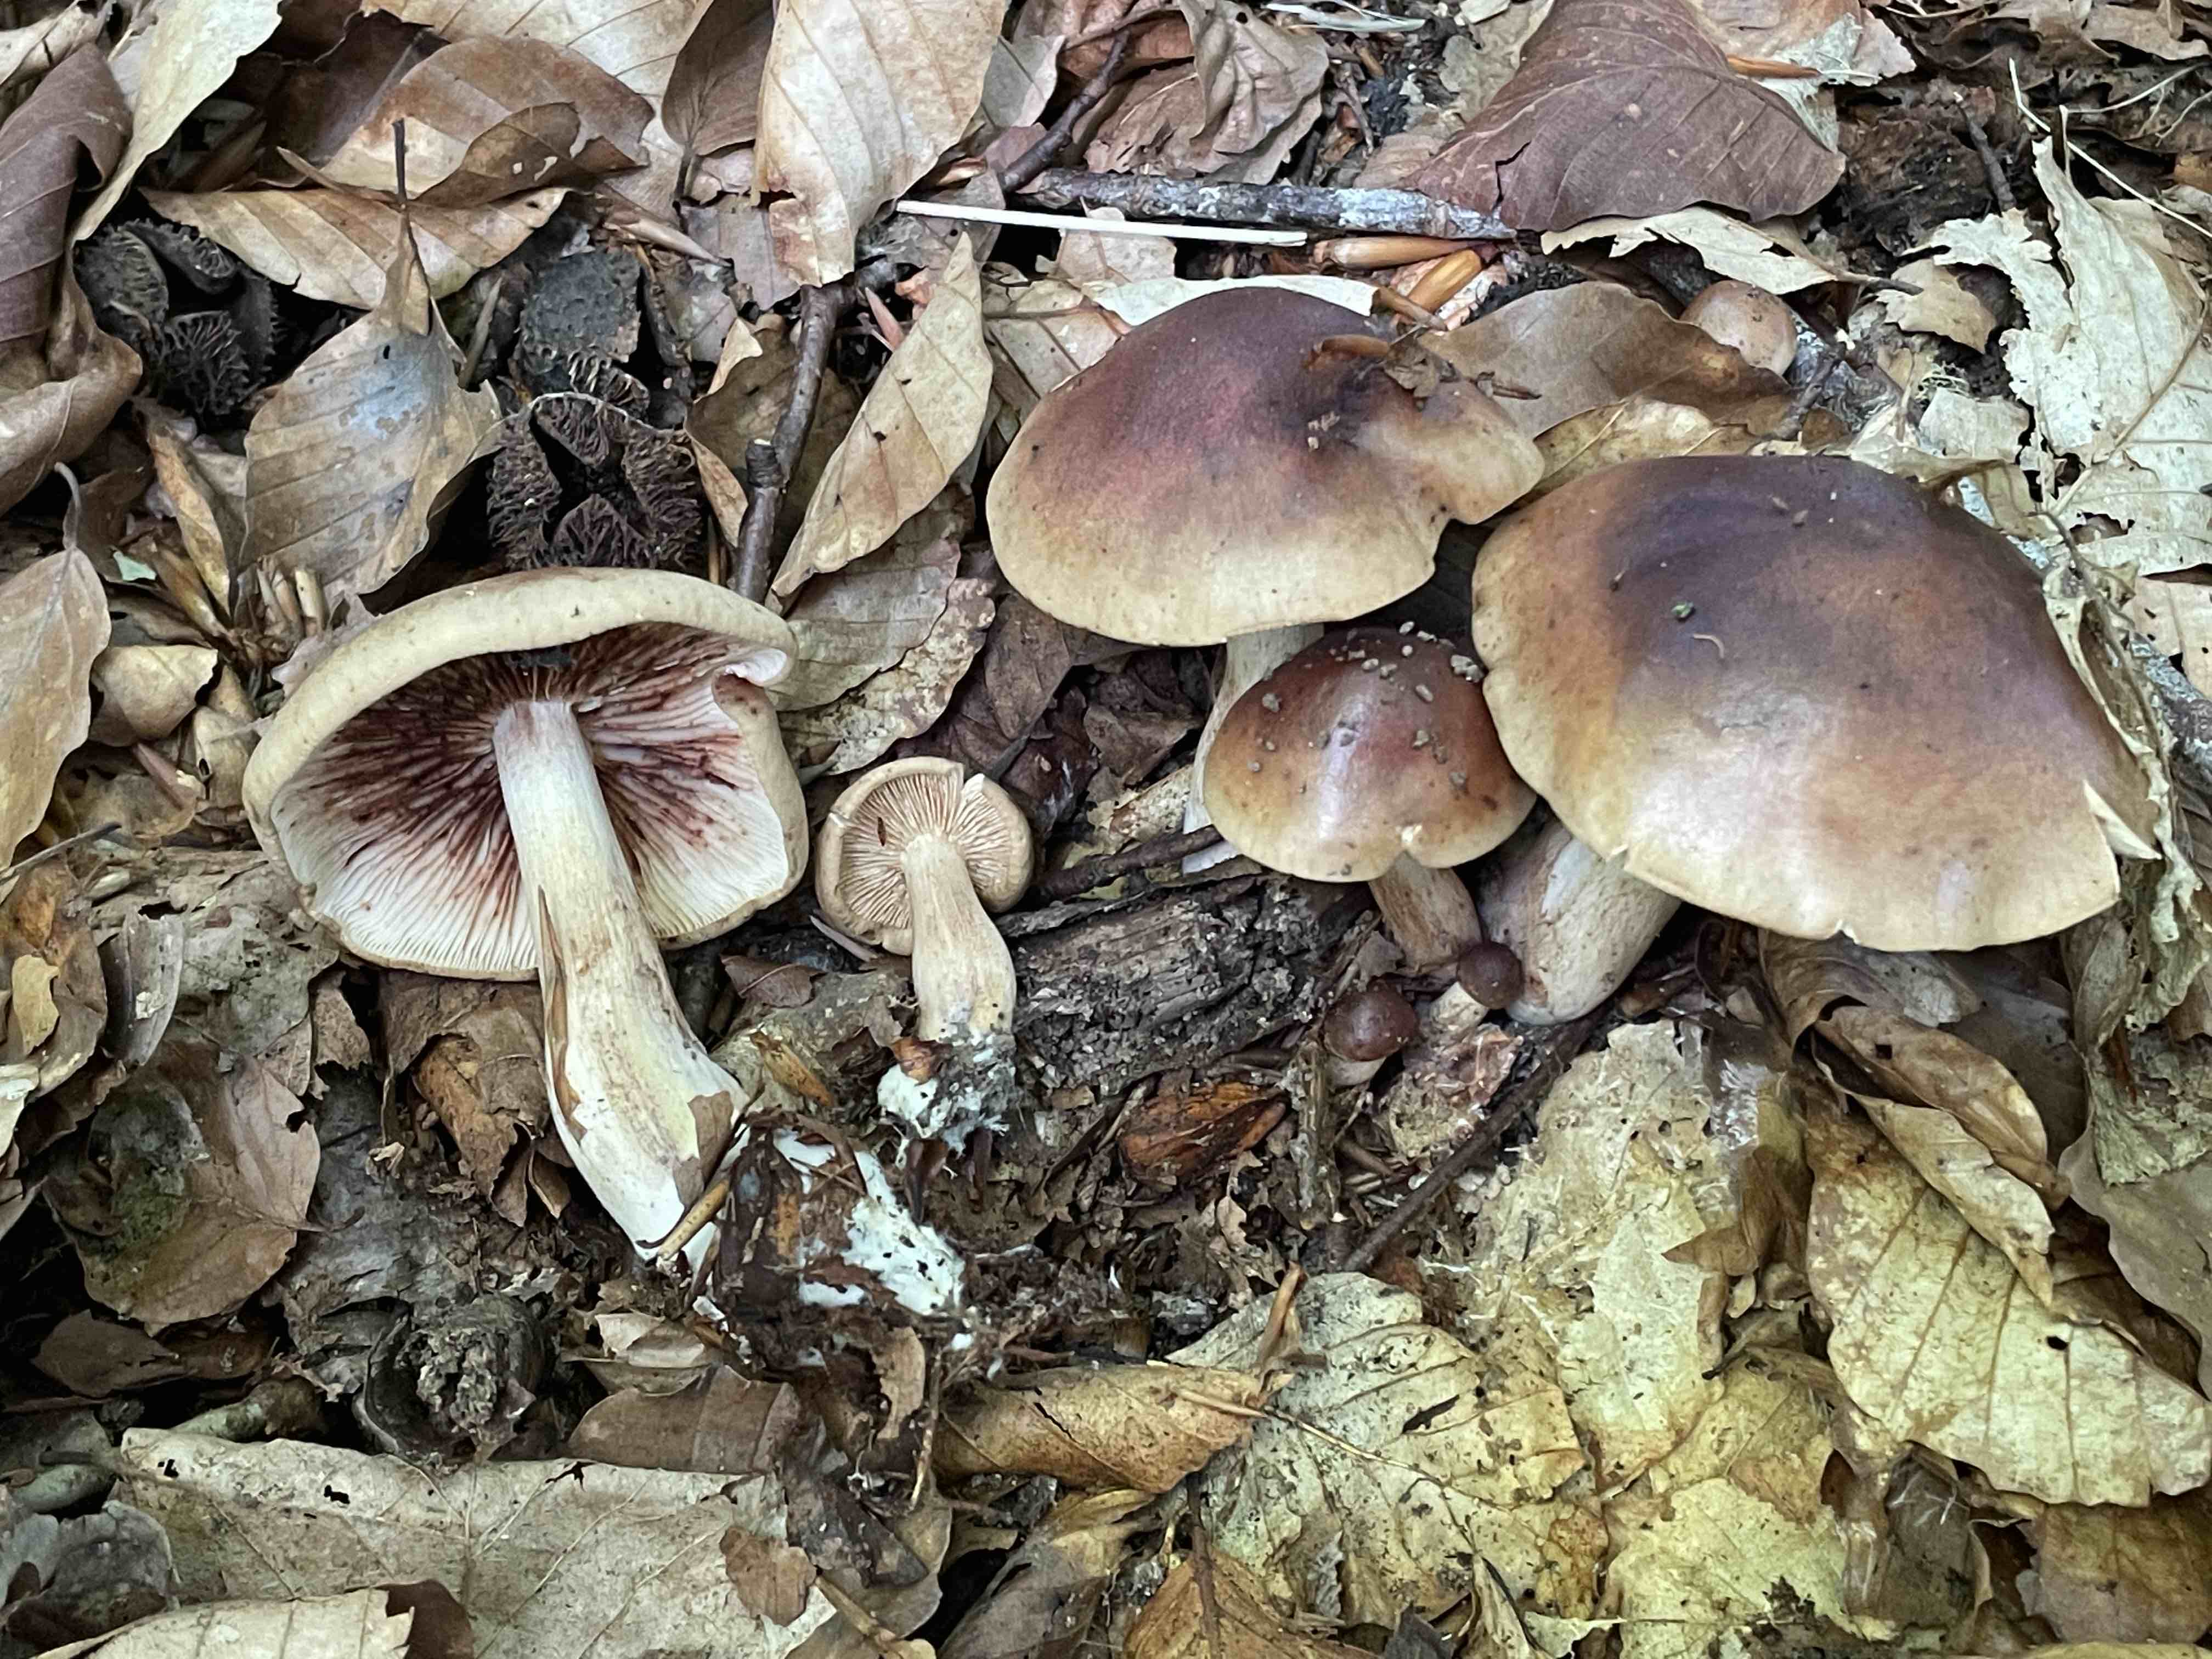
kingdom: Fungi
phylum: Basidiomycota
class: Agaricomycetes
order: Agaricales
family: Tricholomataceae
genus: Tricholoma
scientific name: Tricholoma ustale
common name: sveden ridderhat
